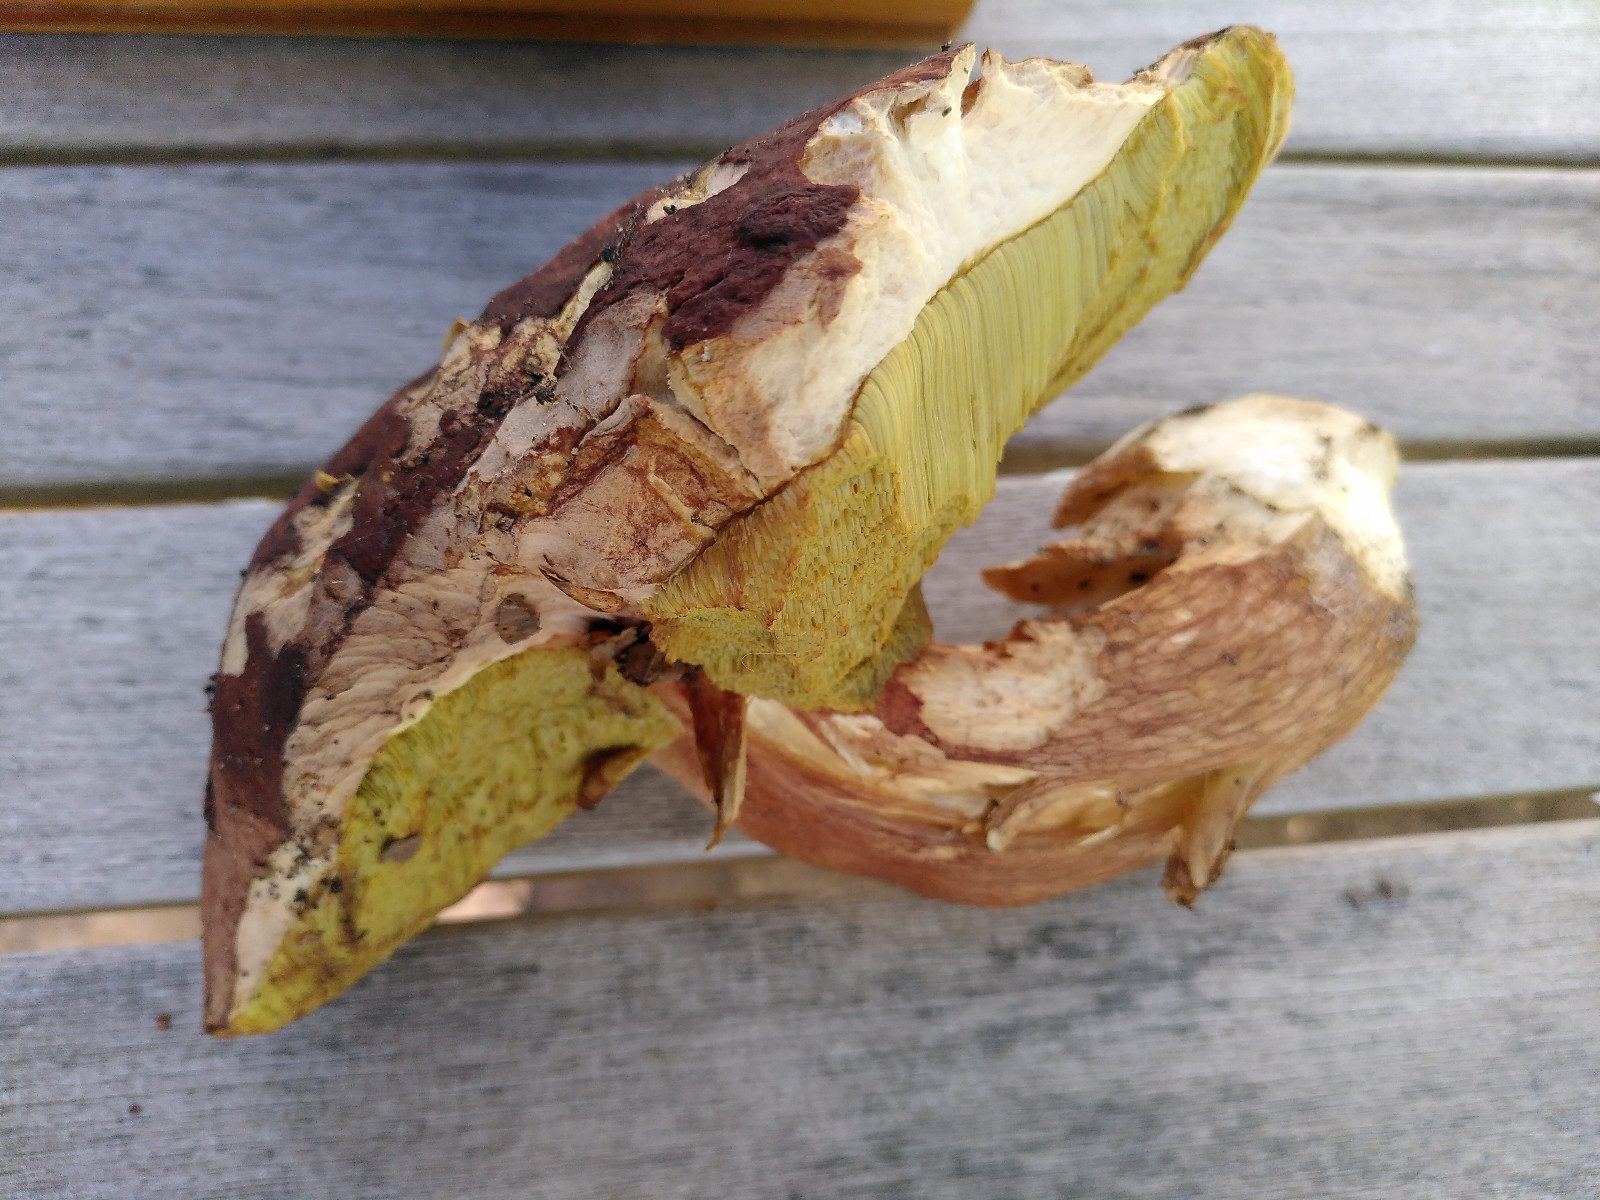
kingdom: Fungi
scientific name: Fungi
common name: bronze-rørhat
